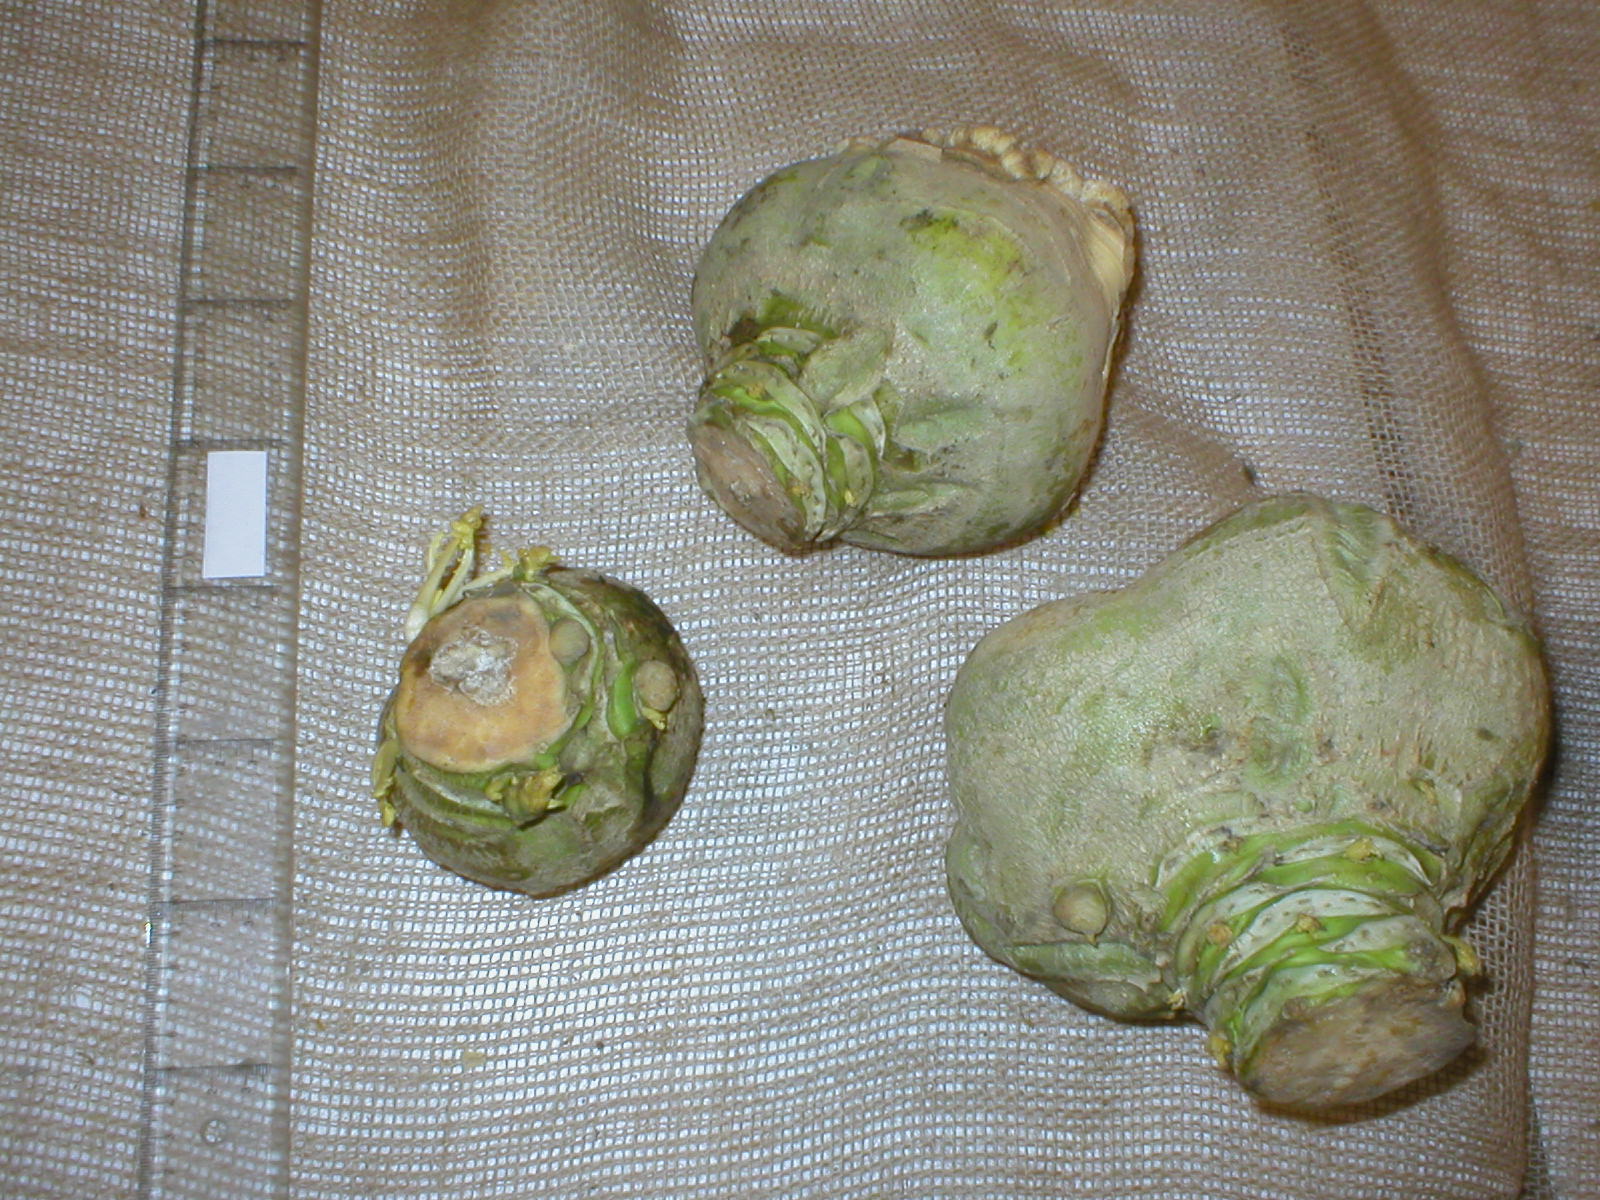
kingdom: Plantae
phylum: Tracheophyta
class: Magnoliopsida
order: Brassicales
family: Brassicaceae
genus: Brassica
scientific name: Brassica napus
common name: Rape
